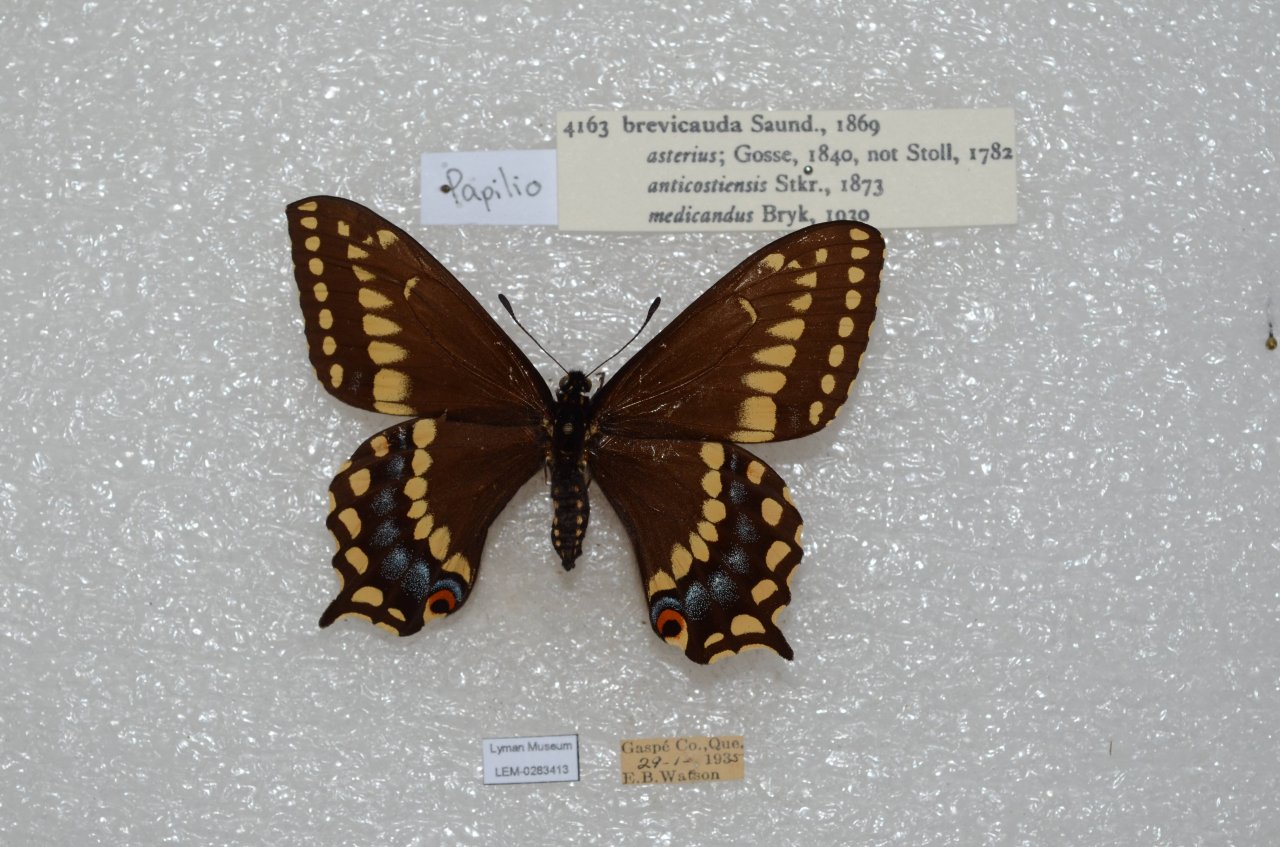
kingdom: Animalia
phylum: Arthropoda
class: Insecta
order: Lepidoptera
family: Papilionidae
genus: Papilio
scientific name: Papilio brevicauda
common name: Short-tailed Swallowtail
